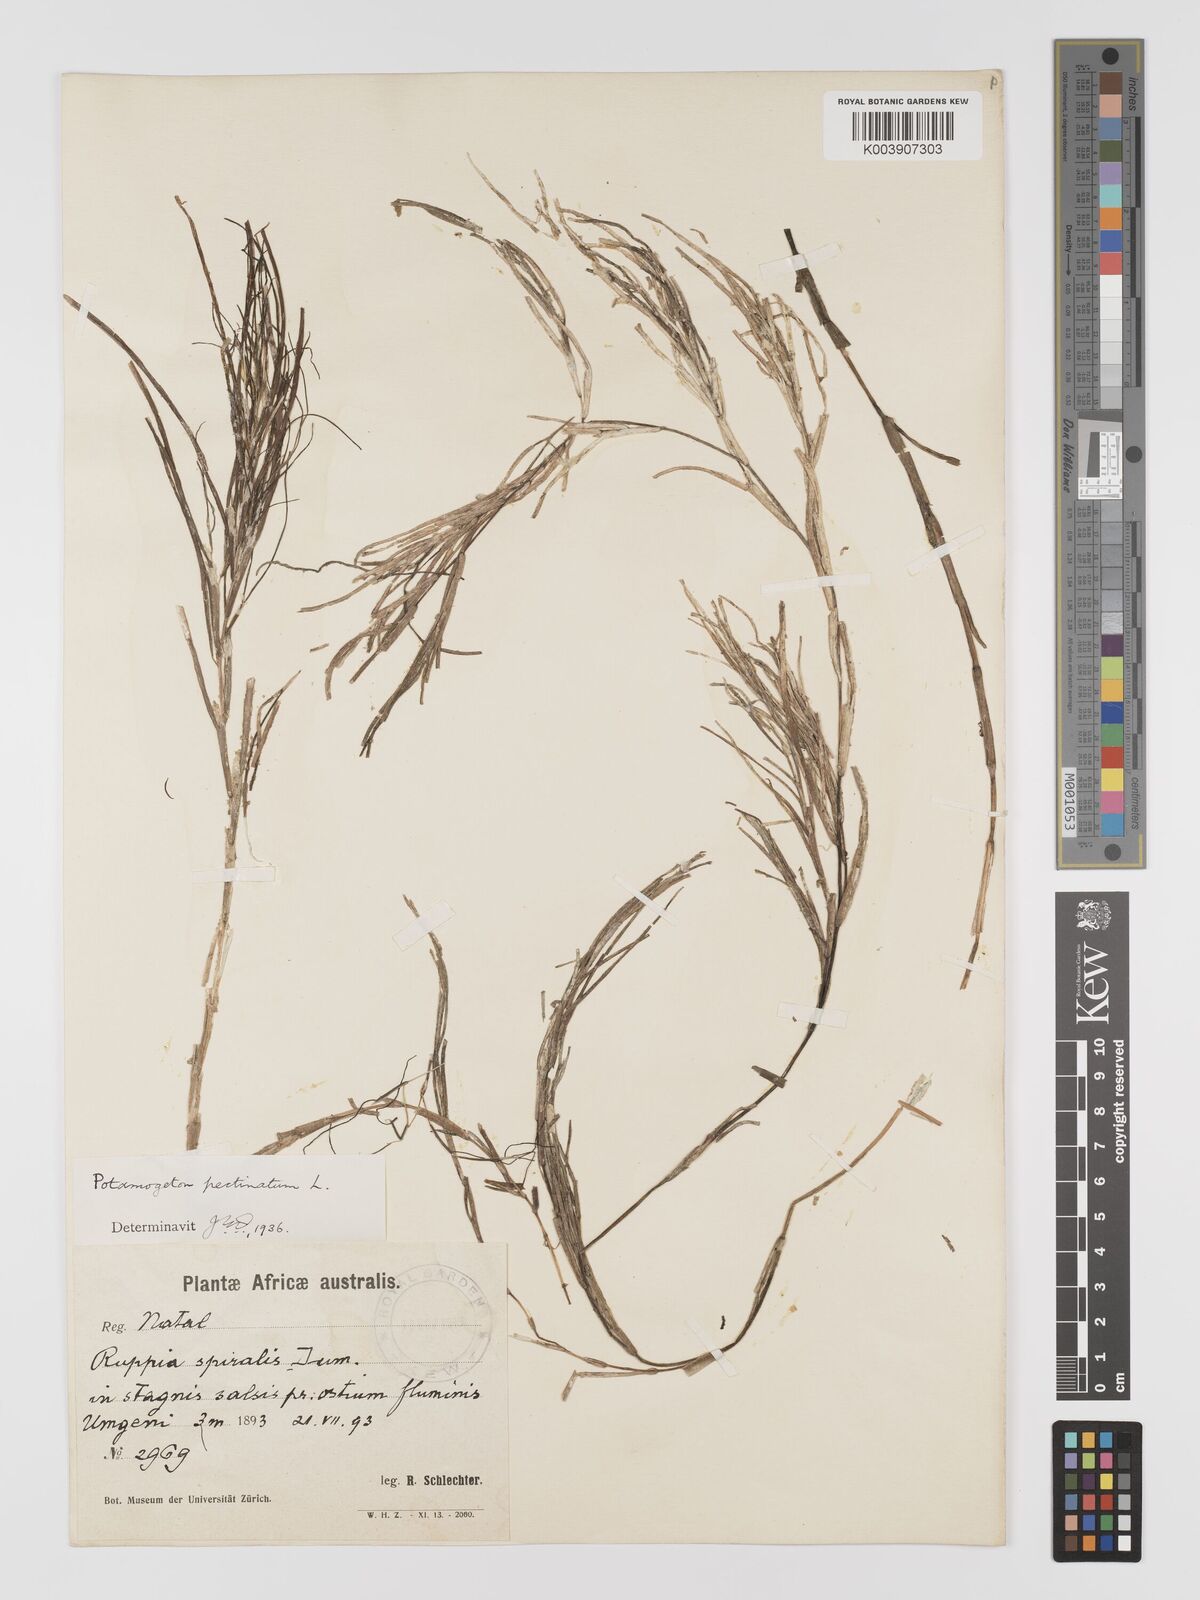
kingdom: Plantae
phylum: Tracheophyta
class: Liliopsida
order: Alismatales
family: Potamogetonaceae
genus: Stuckenia
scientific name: Stuckenia pectinata
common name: Sago pondweed
